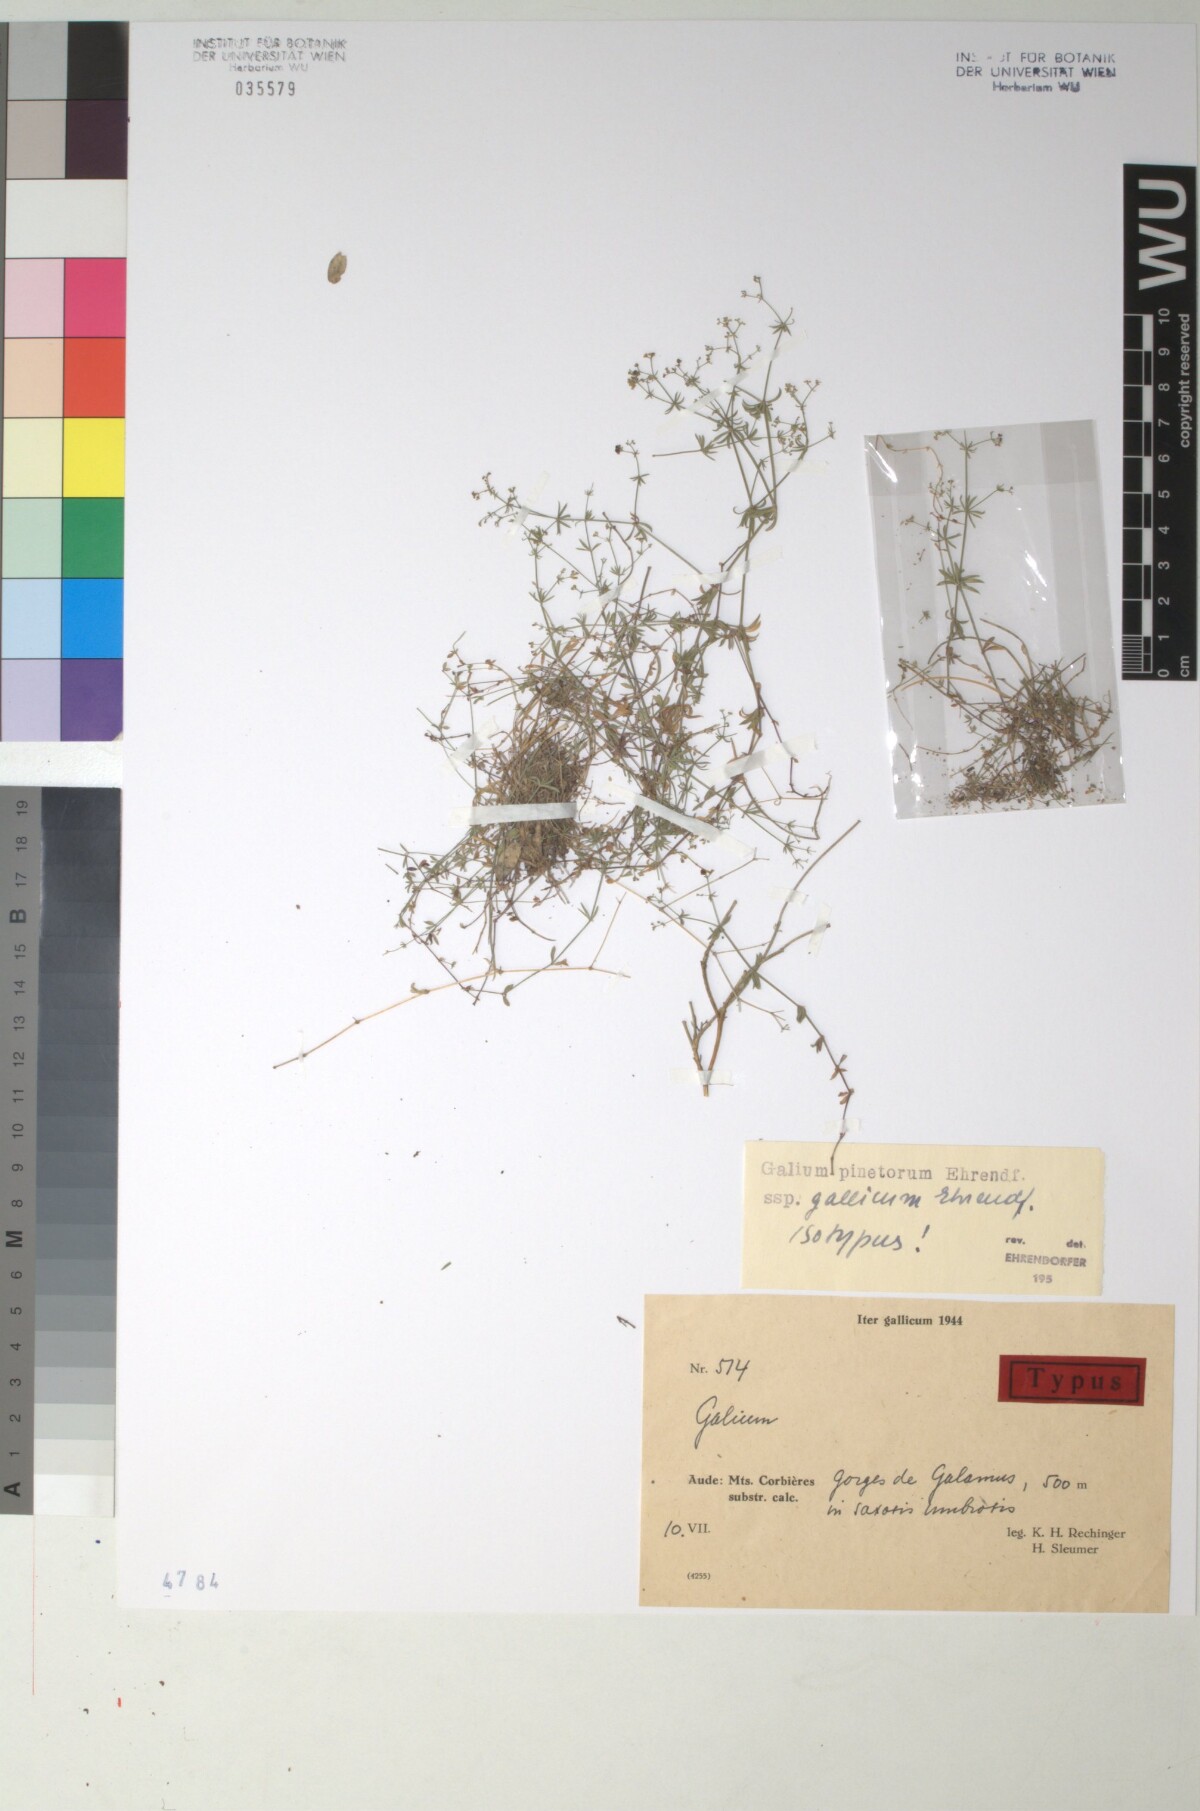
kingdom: Plantae
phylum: Tracheophyta
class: Magnoliopsida
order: Gentianales
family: Rubiaceae
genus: Galium
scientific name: Galium estebanii
